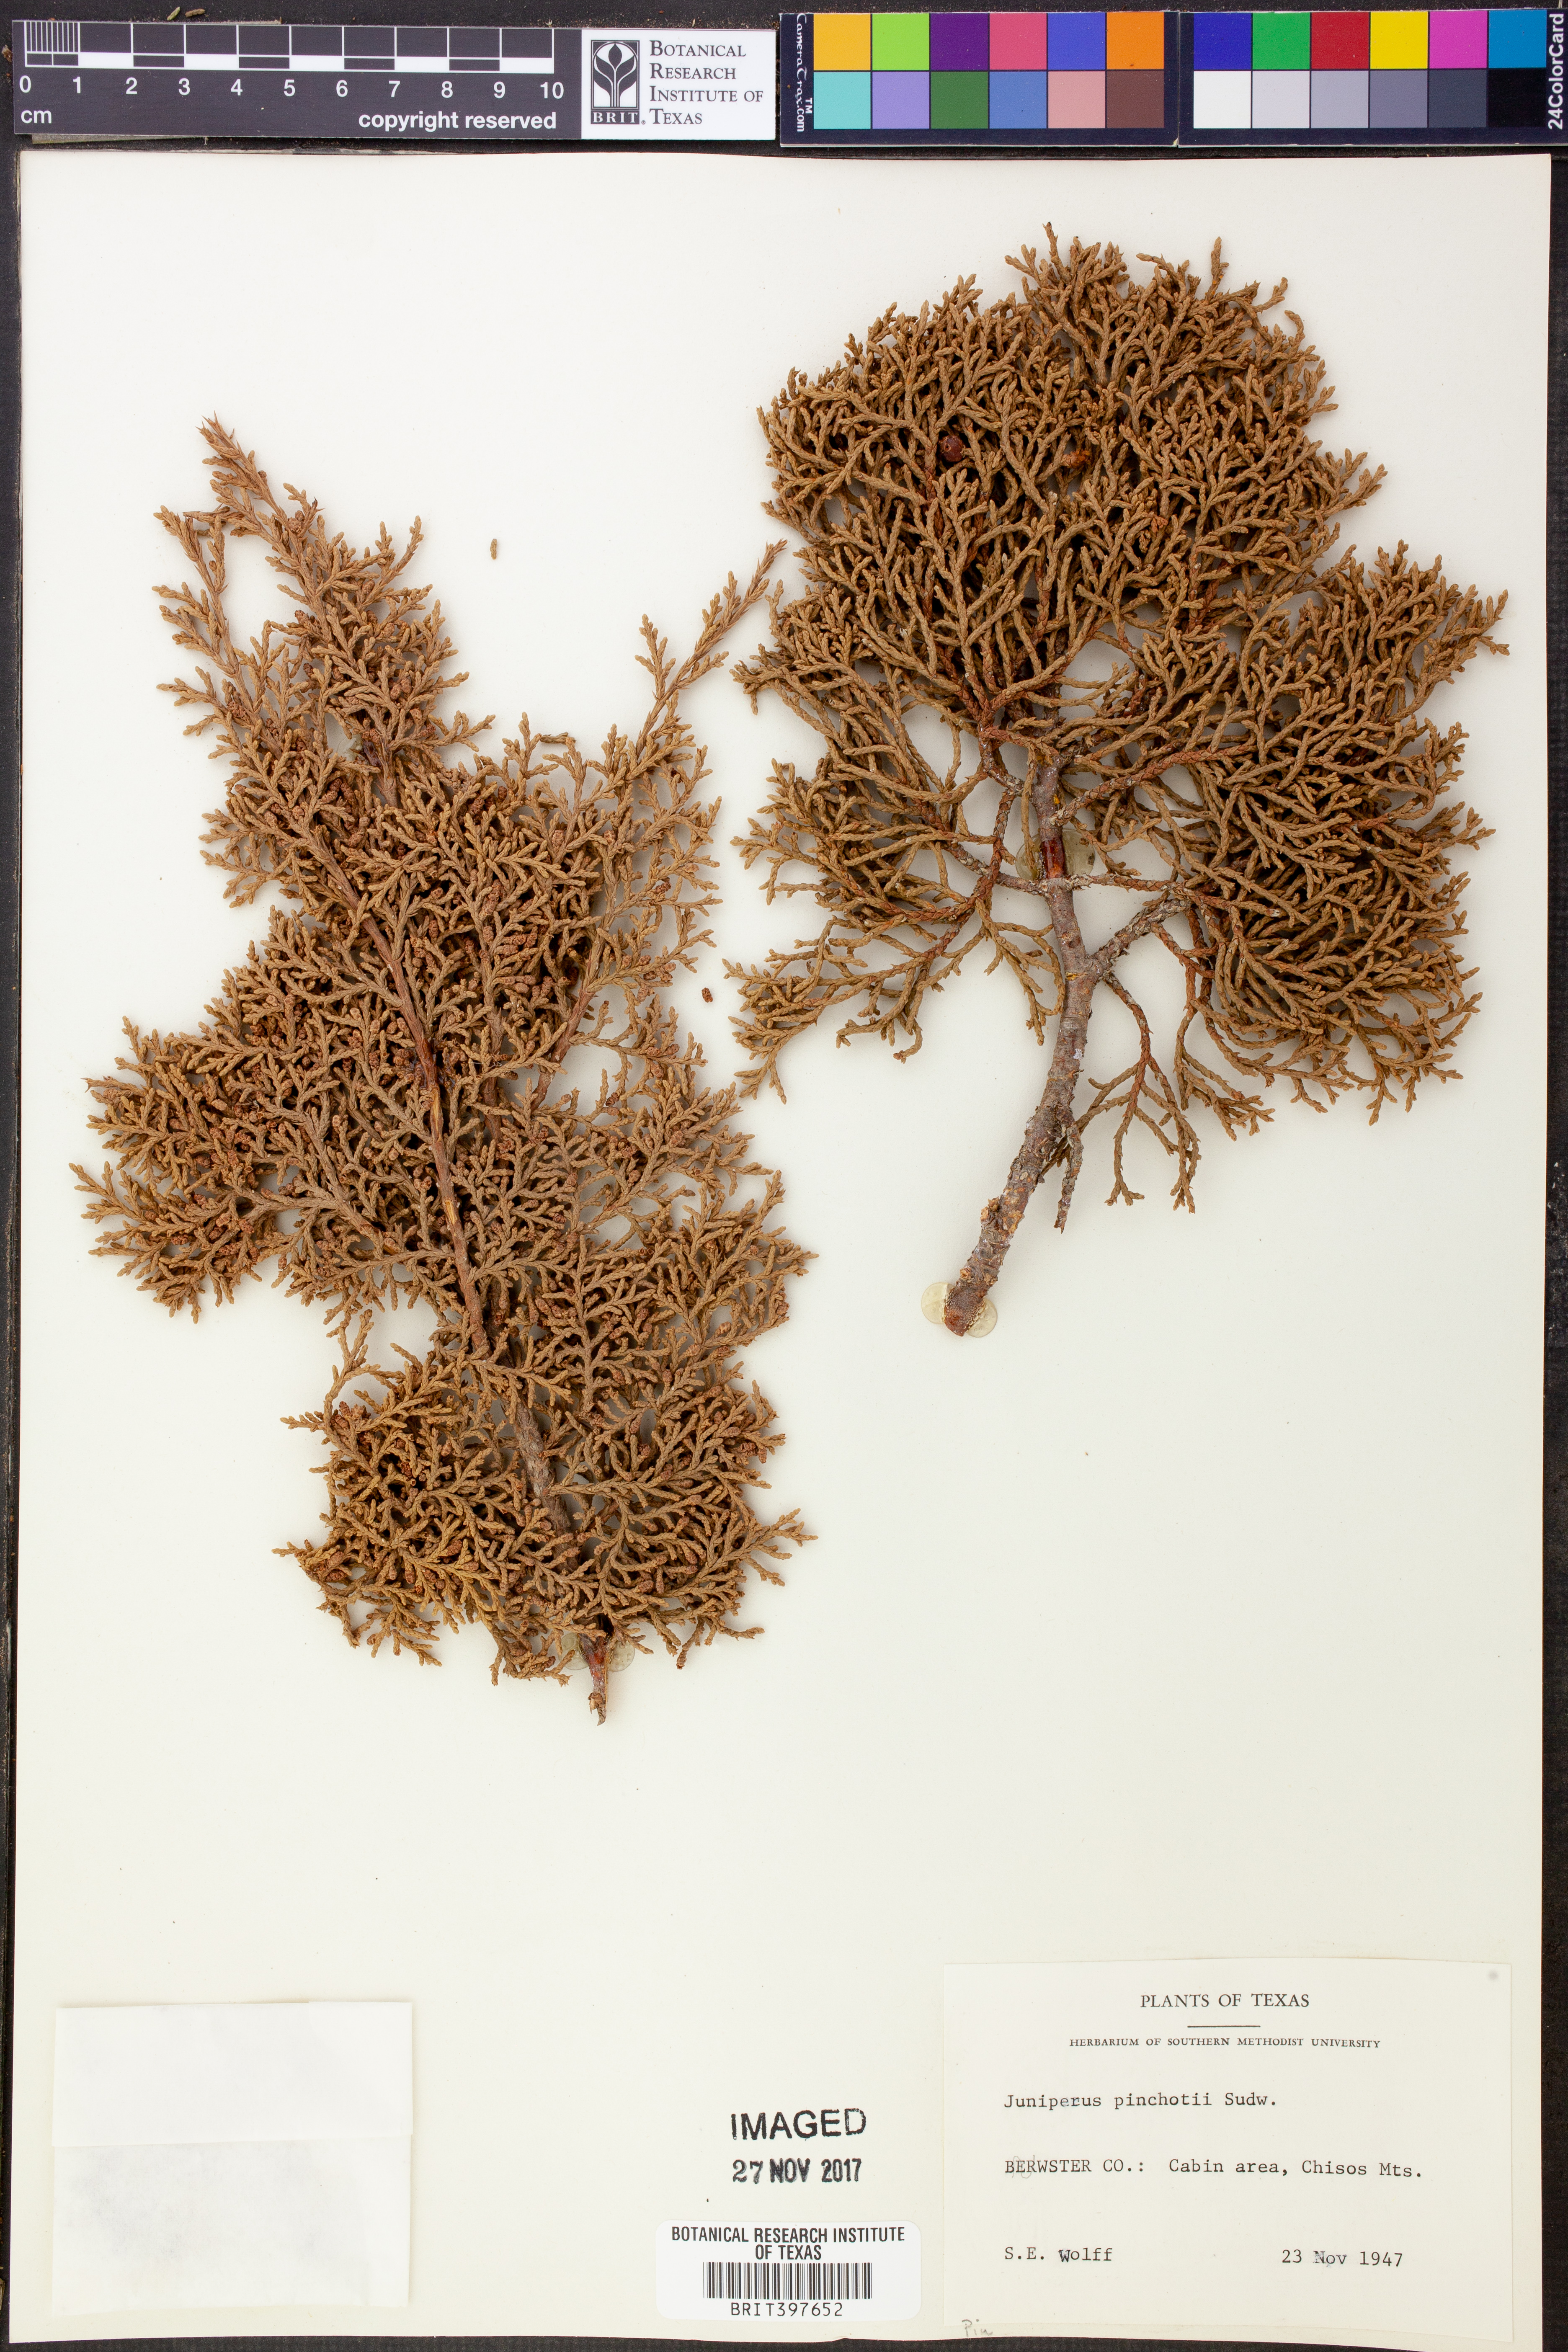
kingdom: Plantae
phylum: Tracheophyta
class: Pinopsida
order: Pinales
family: Cupressaceae
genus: Juniperus
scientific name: Juniperus pinchotii
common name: Pinchot juniper
